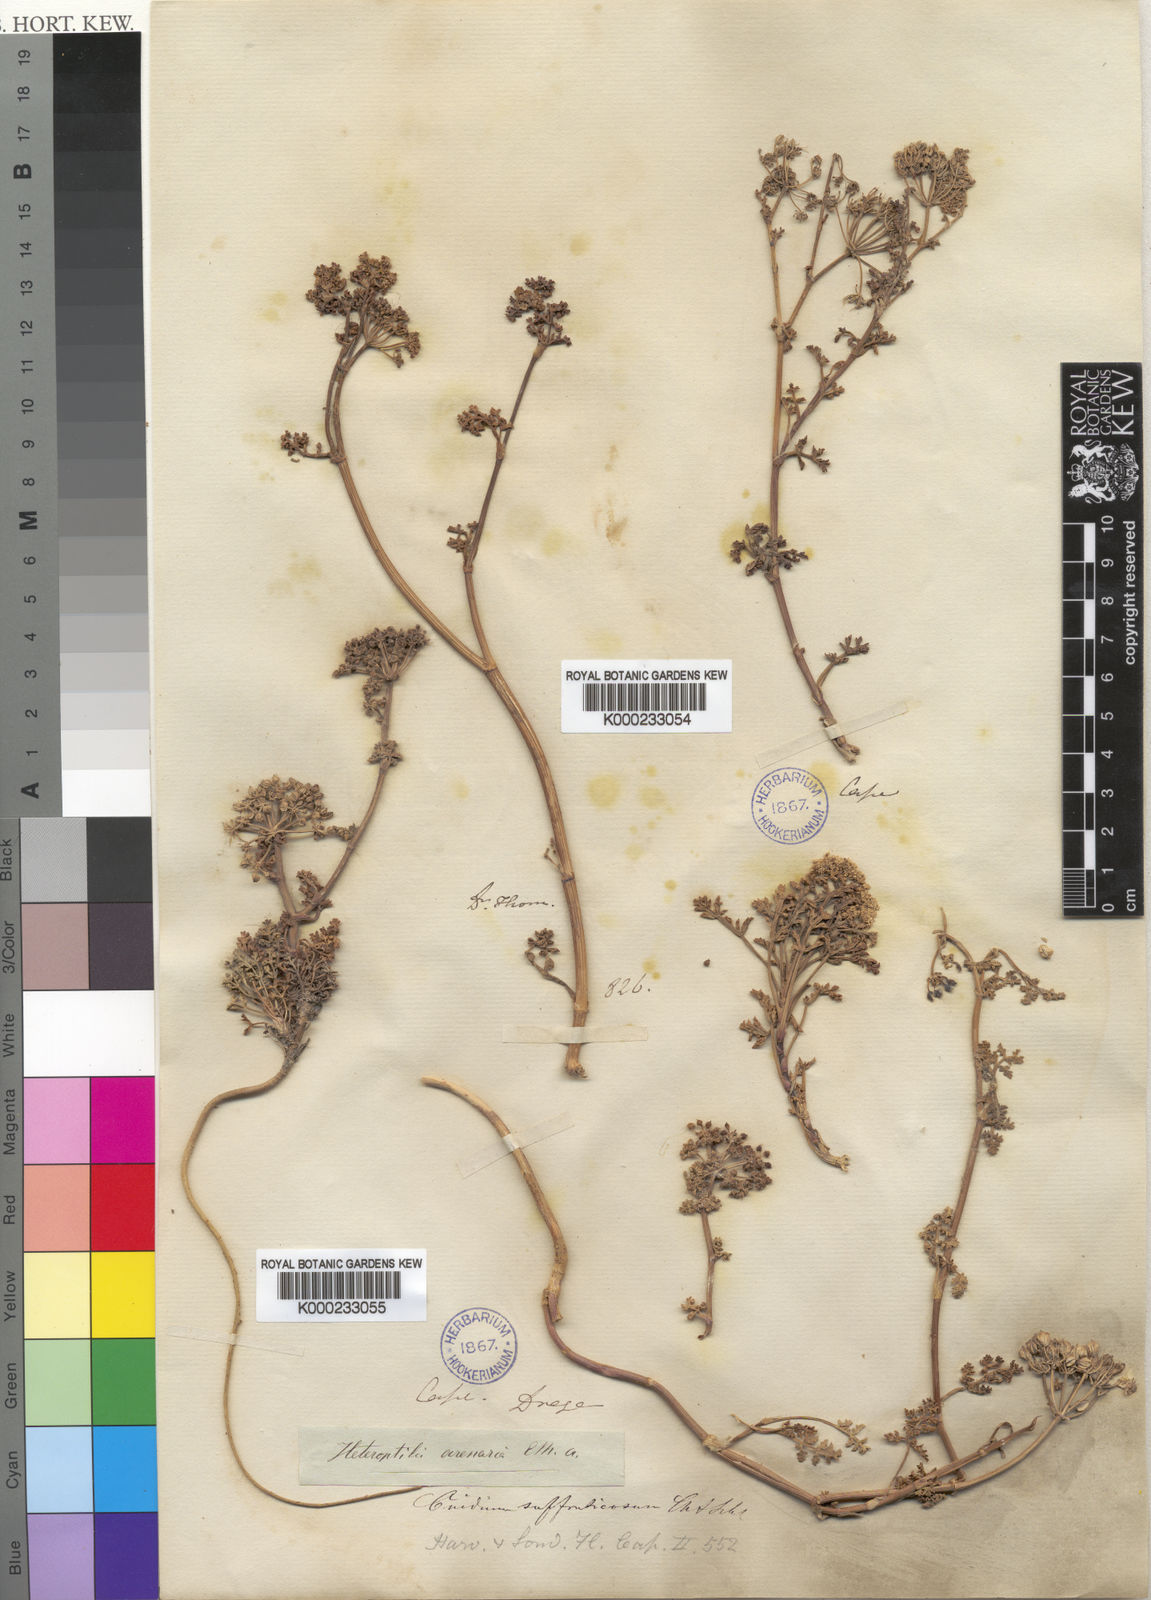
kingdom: Plantae
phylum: Tracheophyta
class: Magnoliopsida
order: Apiales
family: Apiaceae
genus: Dasispermum
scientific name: Dasispermum suffruticosum
